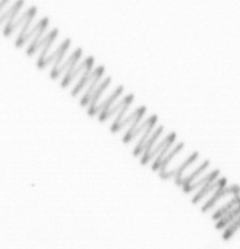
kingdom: Chromista
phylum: Ochrophyta
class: Bacillariophyceae
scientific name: Bacillariophyceae
